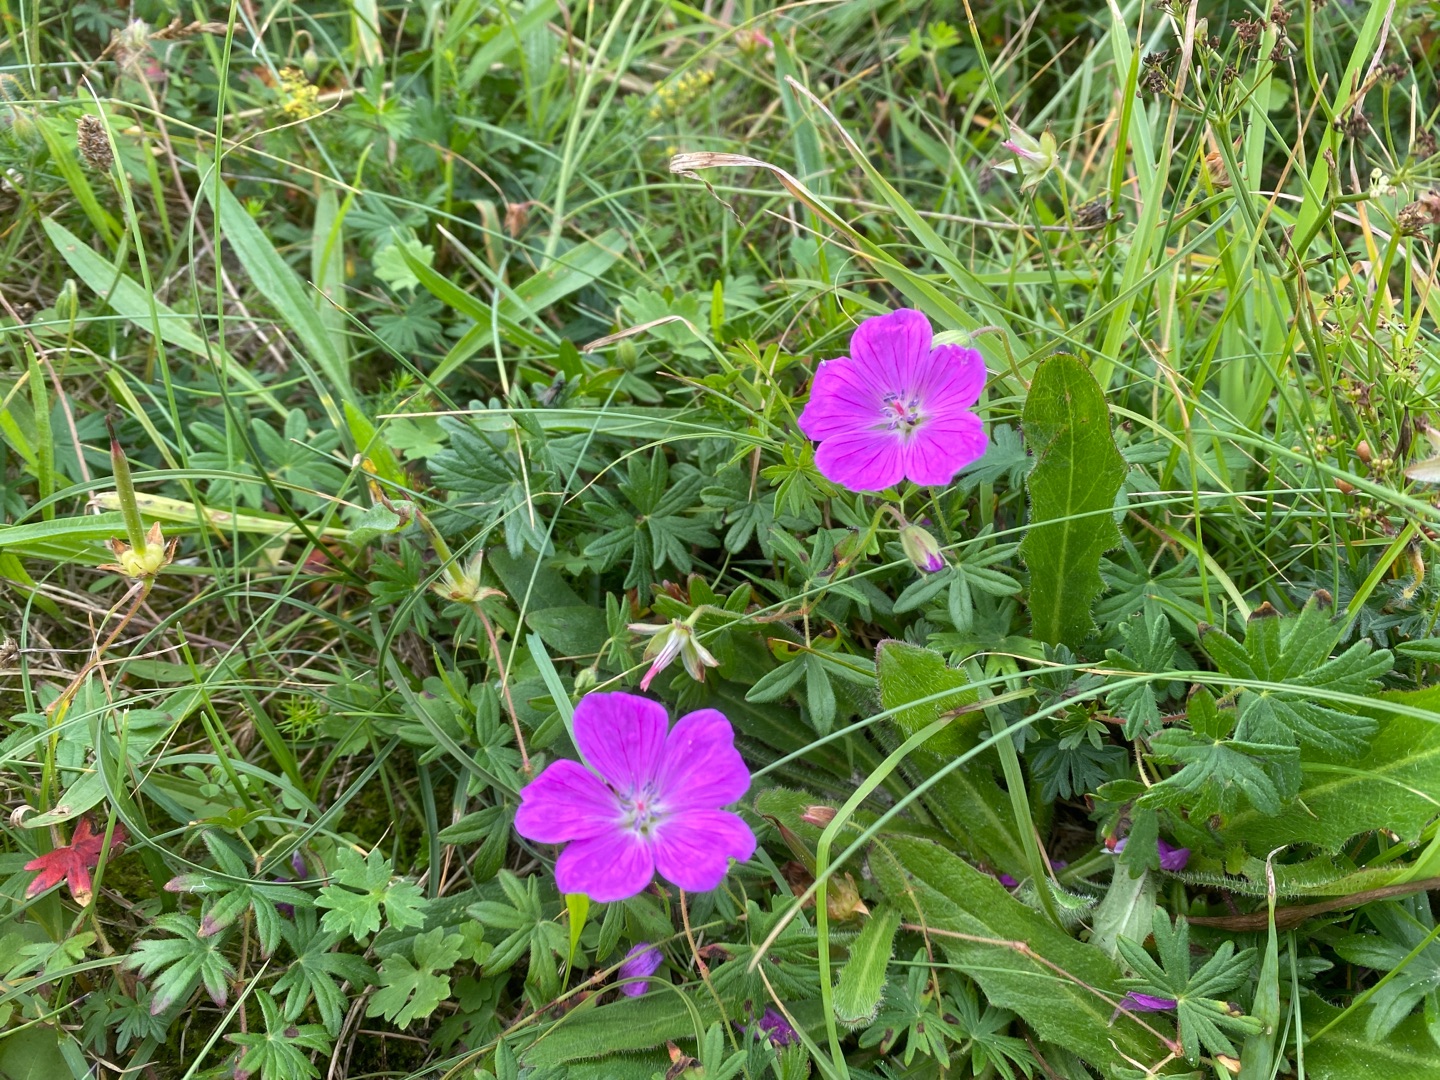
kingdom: Plantae
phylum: Tracheophyta
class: Magnoliopsida
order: Geraniales
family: Geraniaceae
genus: Geranium
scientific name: Geranium sanguineum
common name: Blodrød storkenæb
